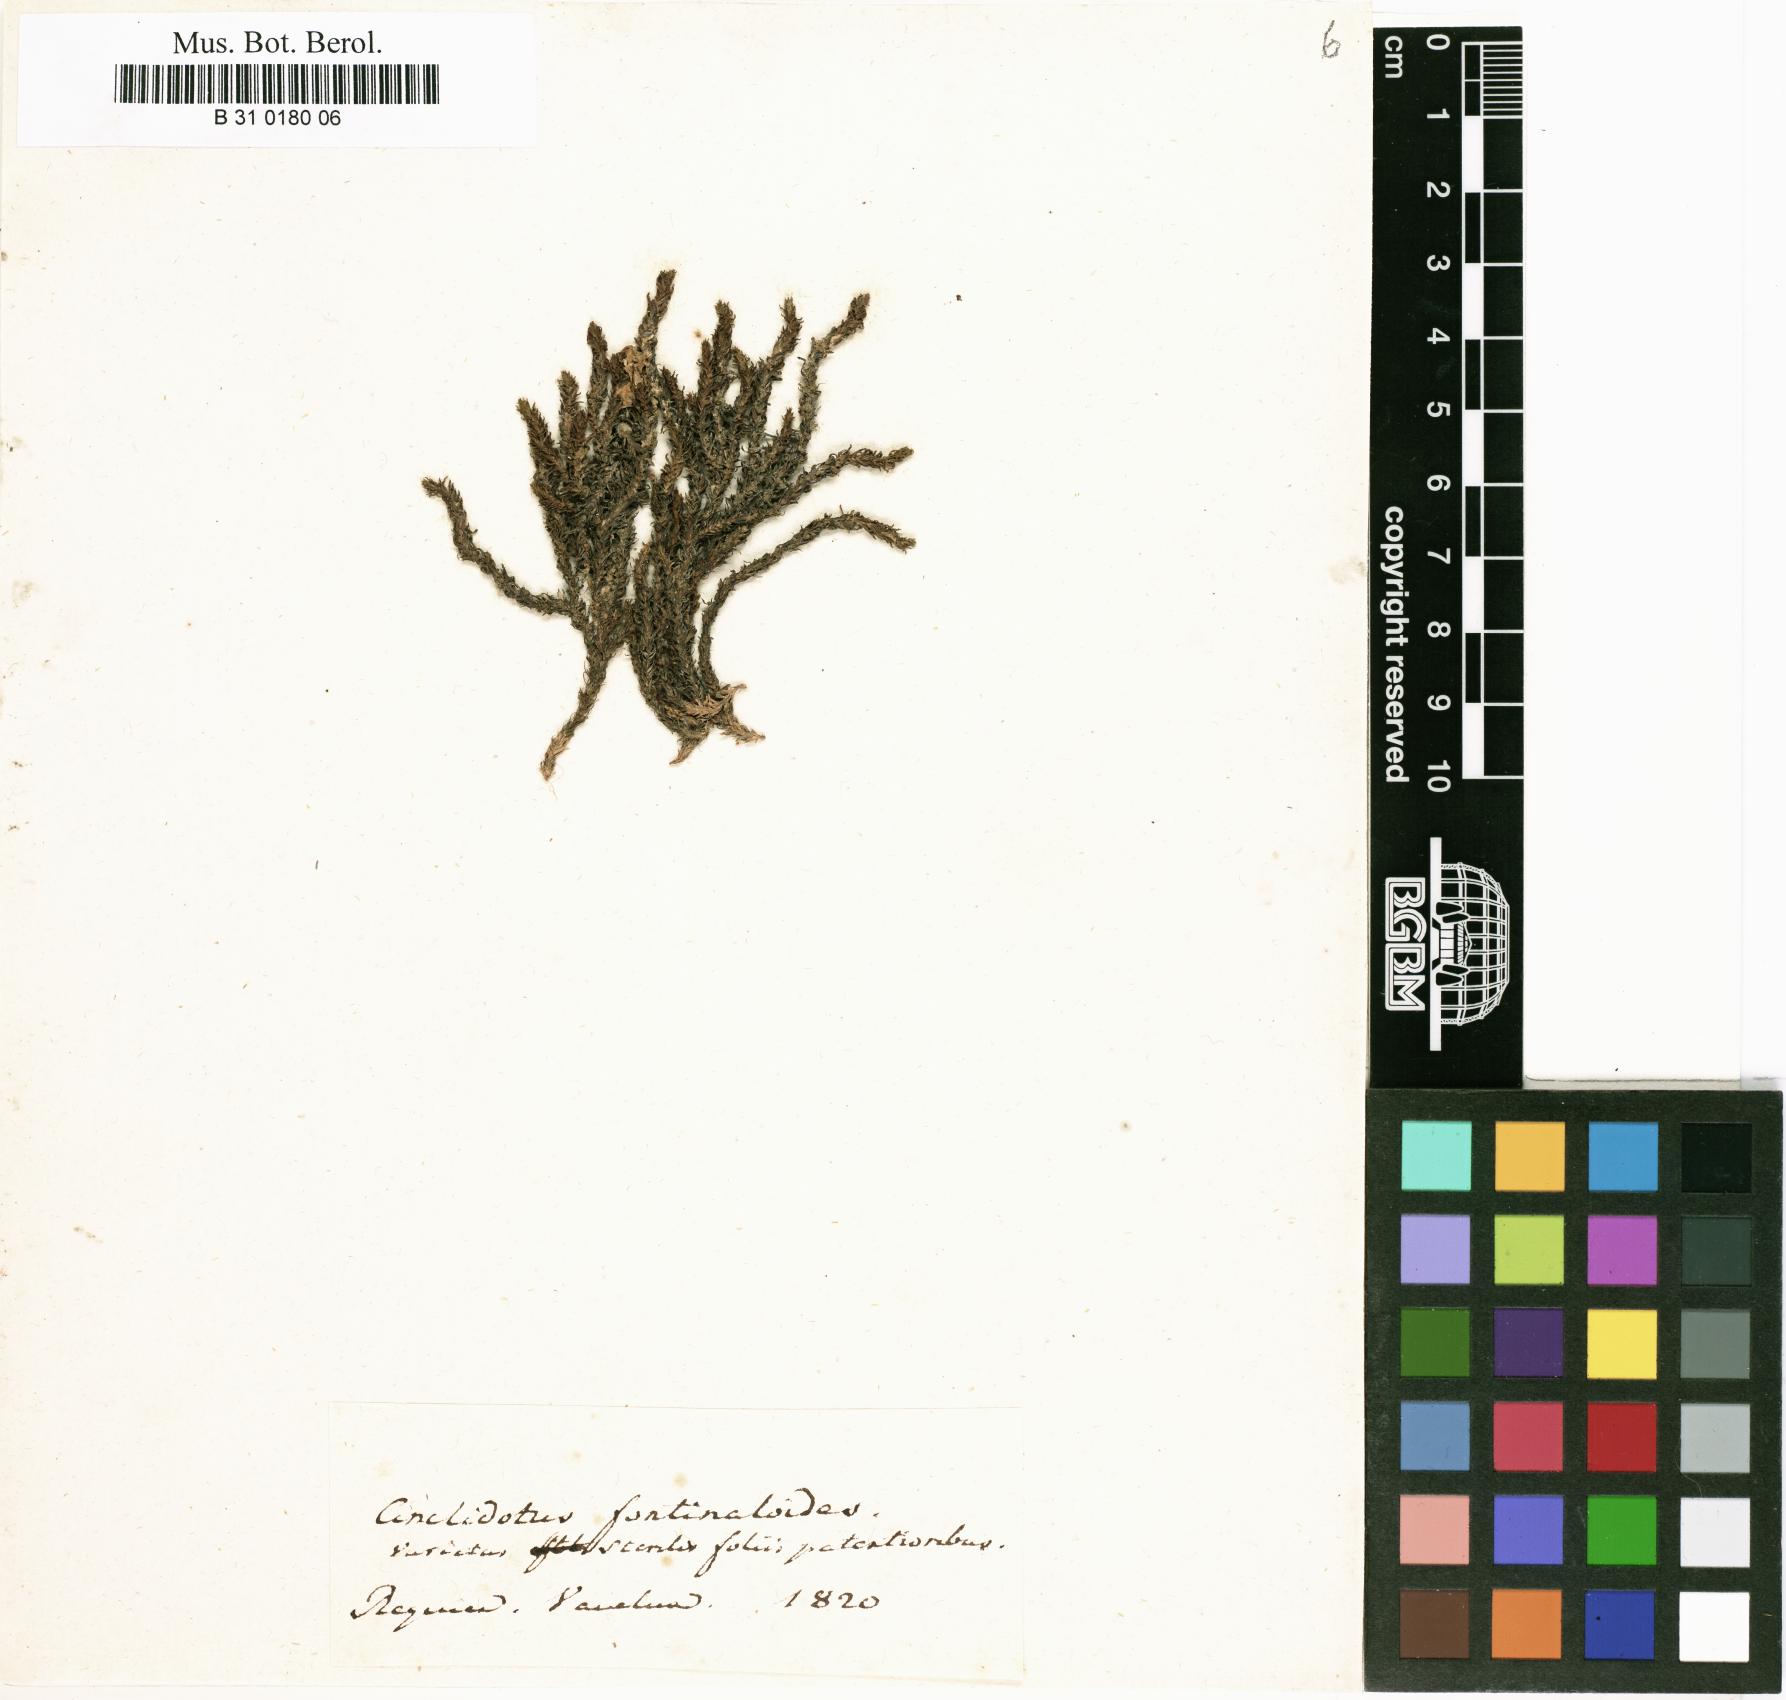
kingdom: Plantae
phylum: Bryophyta
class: Bryopsida
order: Pottiales
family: Pottiaceae
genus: Cinclidotus
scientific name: Cinclidotus fontinaloides
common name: Smaller lattice-moss
